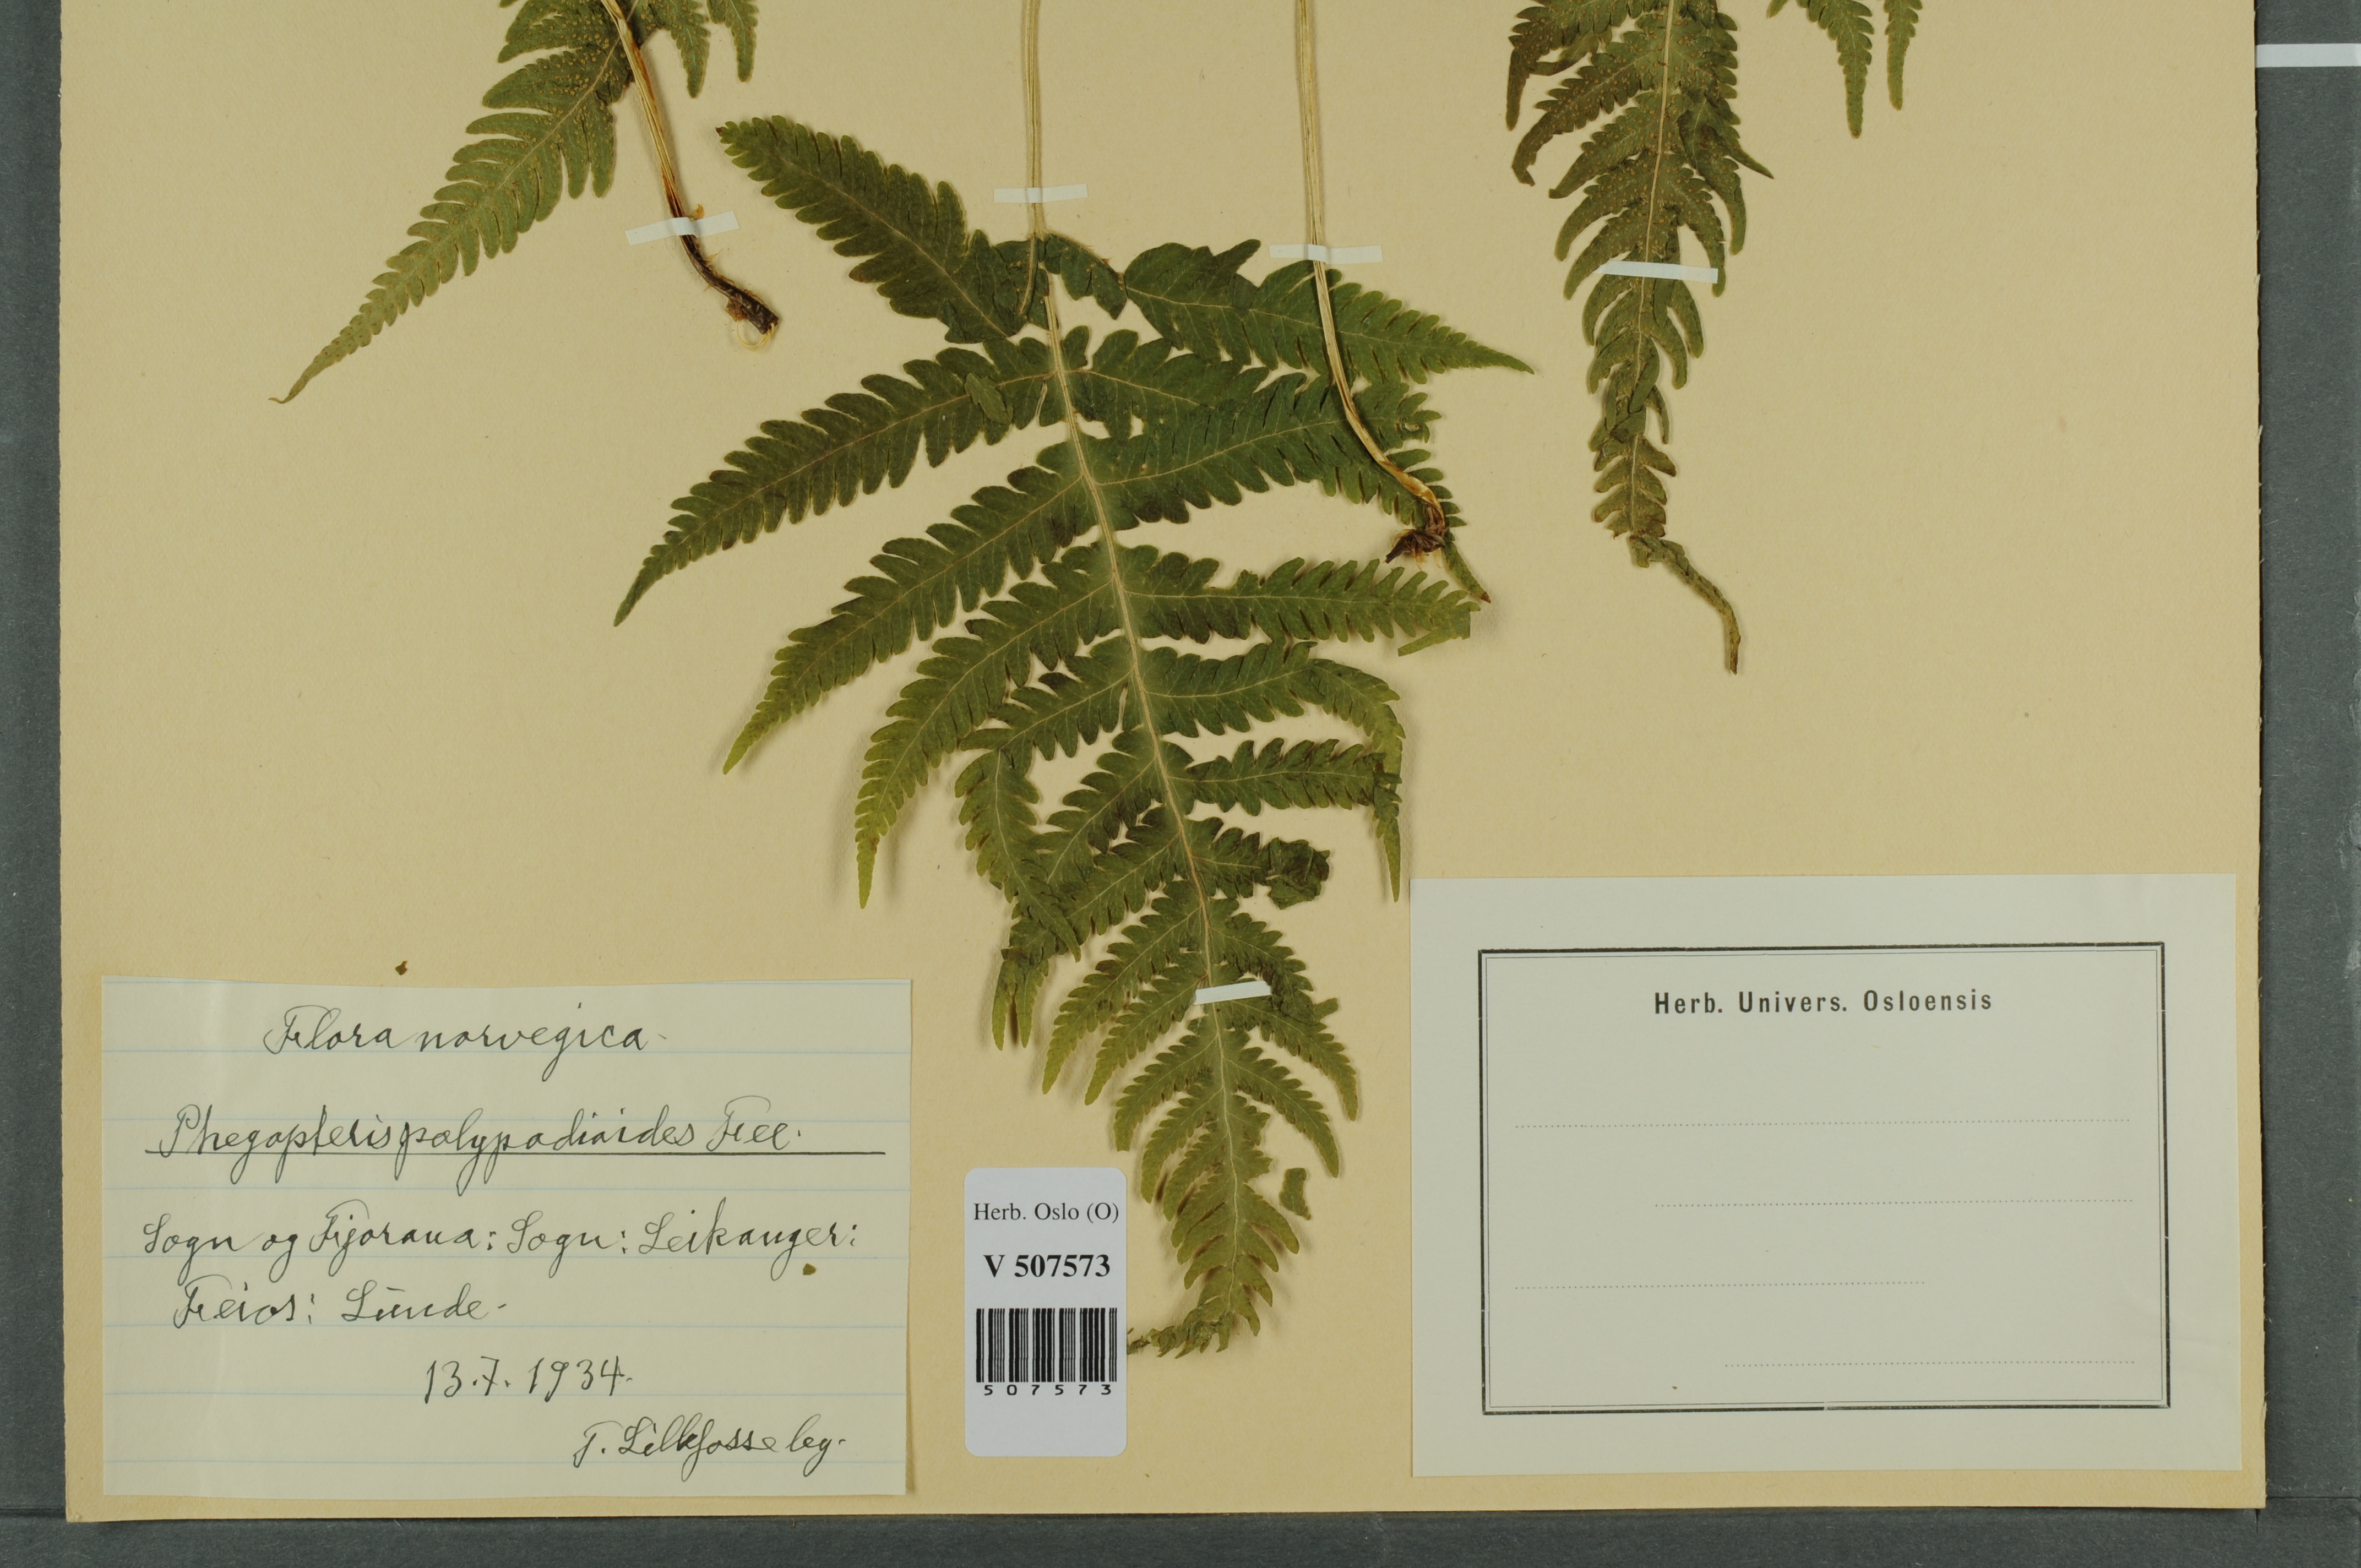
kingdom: Plantae
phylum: Tracheophyta
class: Polypodiopsida
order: Polypodiales
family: Thelypteridaceae
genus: Phegopteris
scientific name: Phegopteris connectilis
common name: Beech fern
